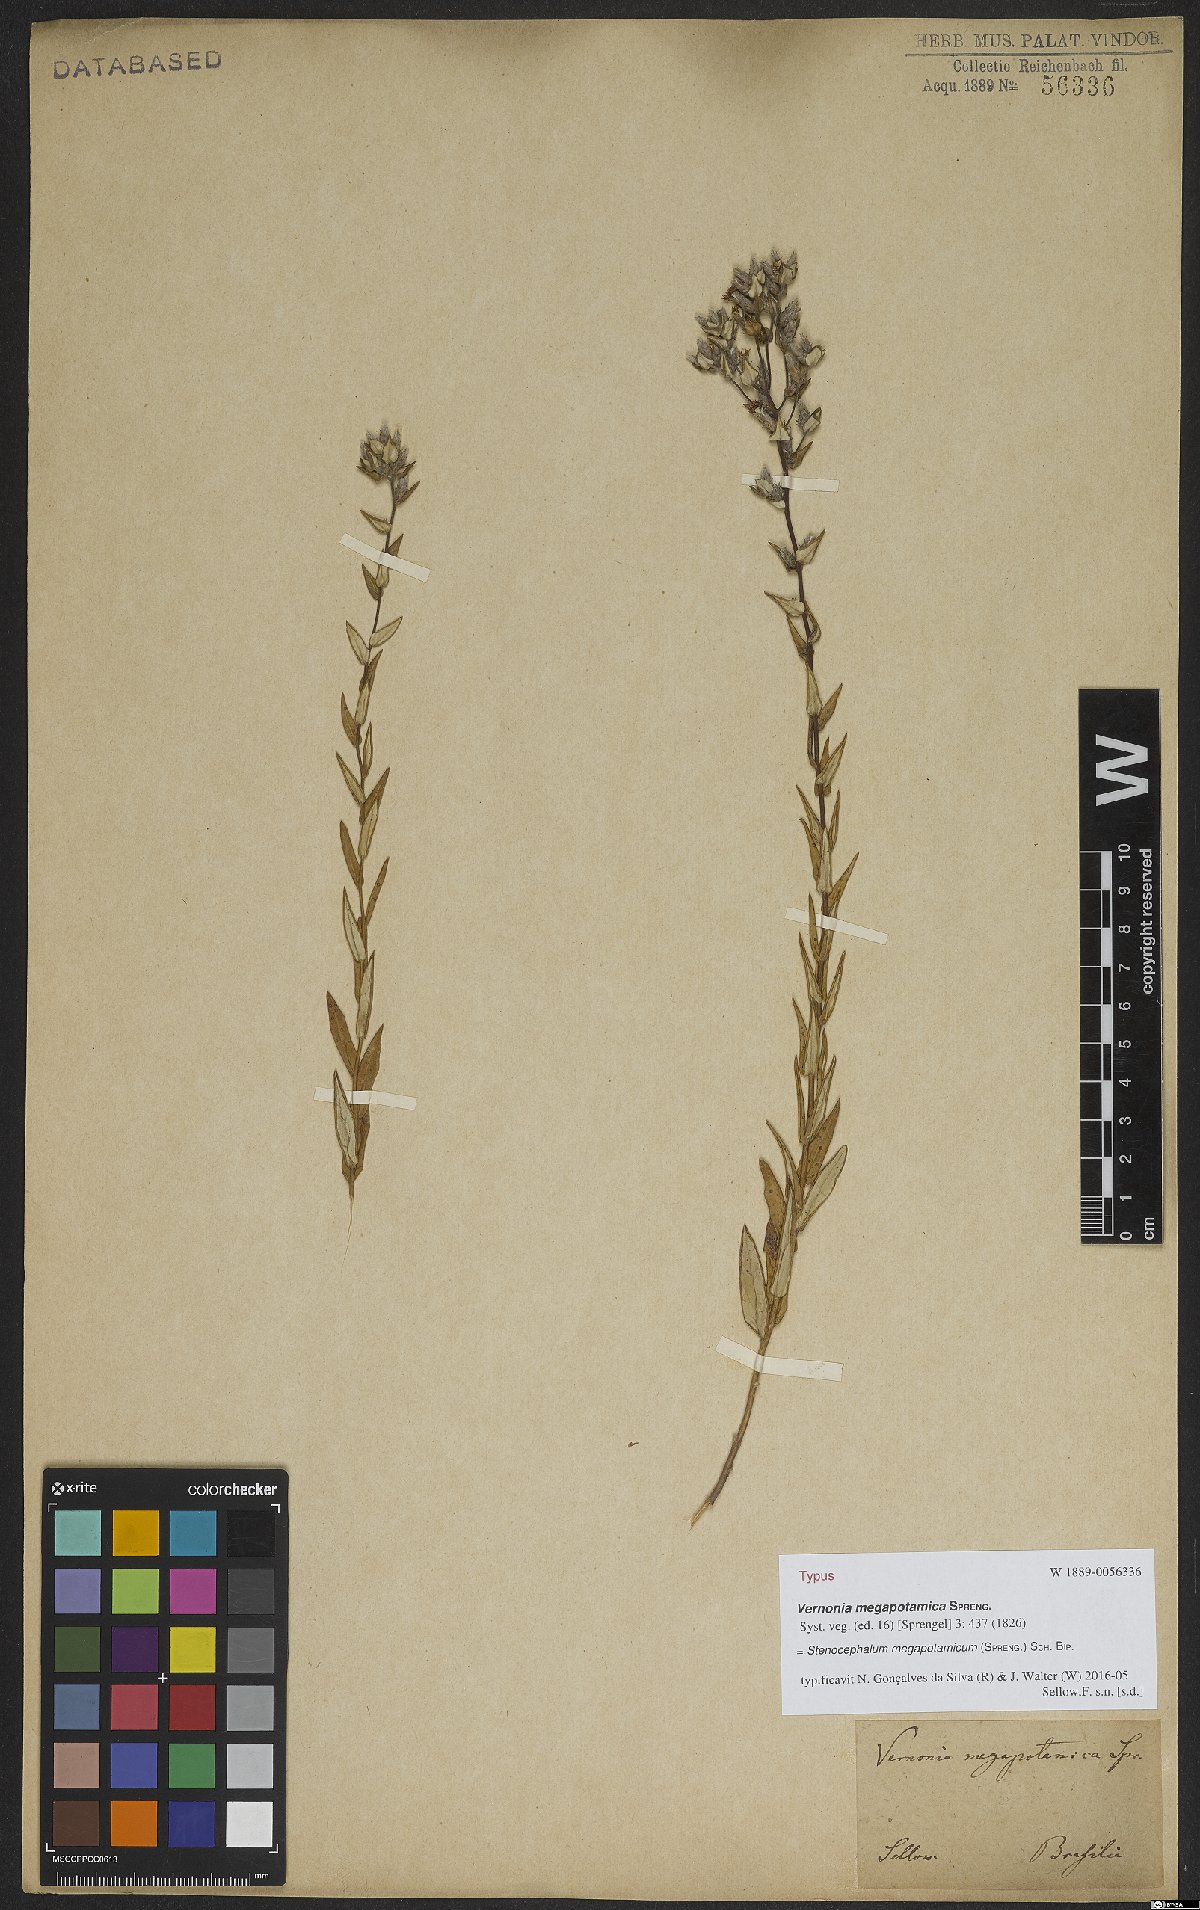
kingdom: Plantae
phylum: Tracheophyta
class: Magnoliopsida
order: Asterales
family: Asteraceae
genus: Stenocephalum
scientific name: Stenocephalum megapotamicum
